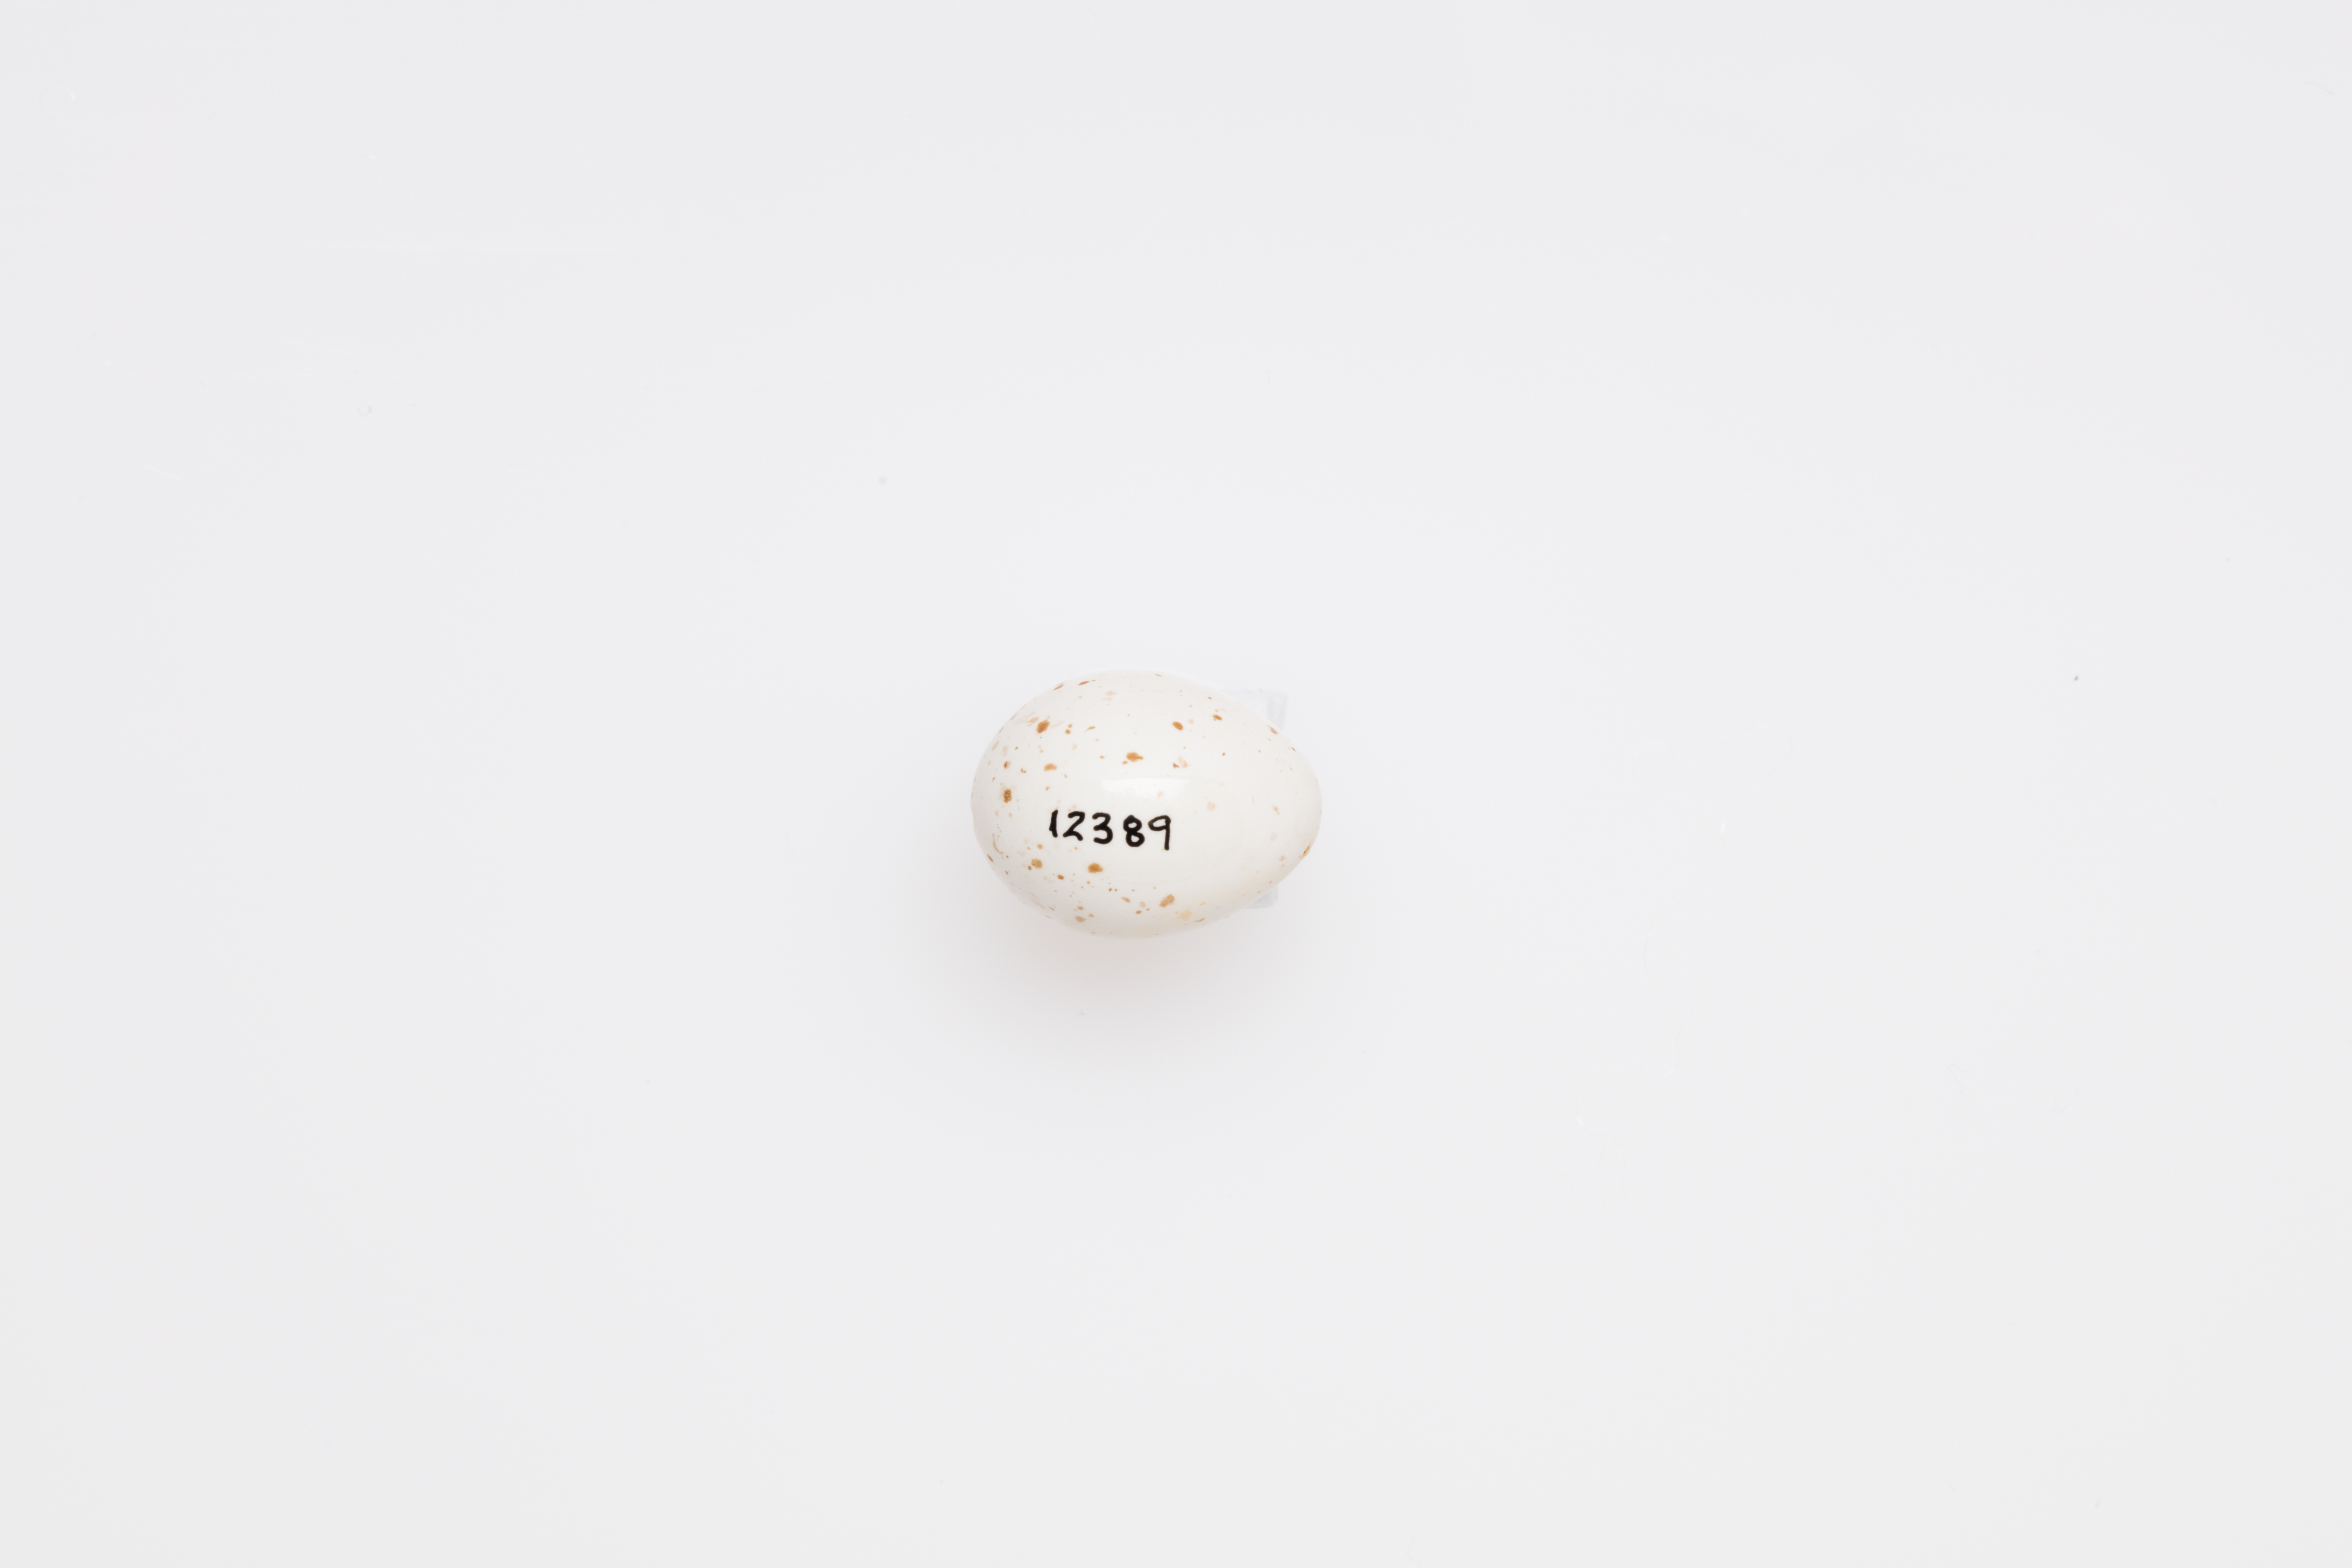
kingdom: Animalia
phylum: Chordata
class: Aves
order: Passeriformes
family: Phylloscopidae
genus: Phylloscopus
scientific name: Phylloscopus collybita
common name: Common chiffchaff
